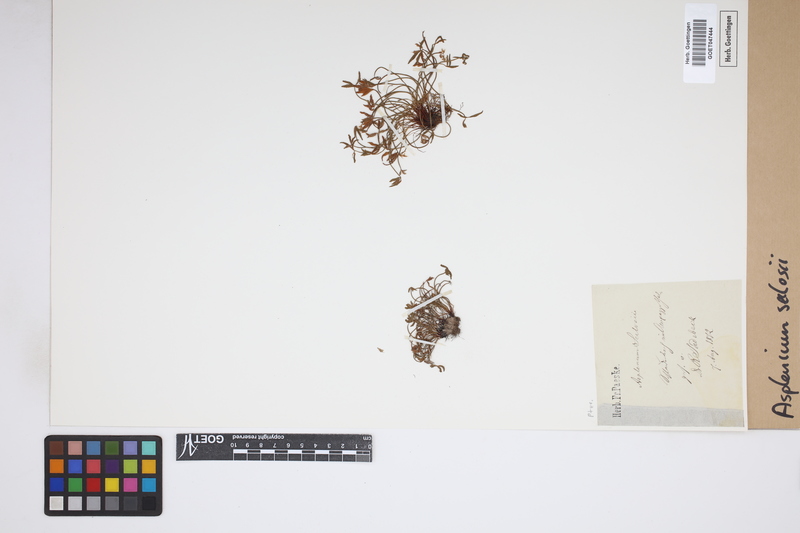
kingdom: Plantae
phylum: Tracheophyta
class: Polypodiopsida
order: Polypodiales
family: Aspleniaceae
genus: Asplenium
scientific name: Asplenium seelosii
